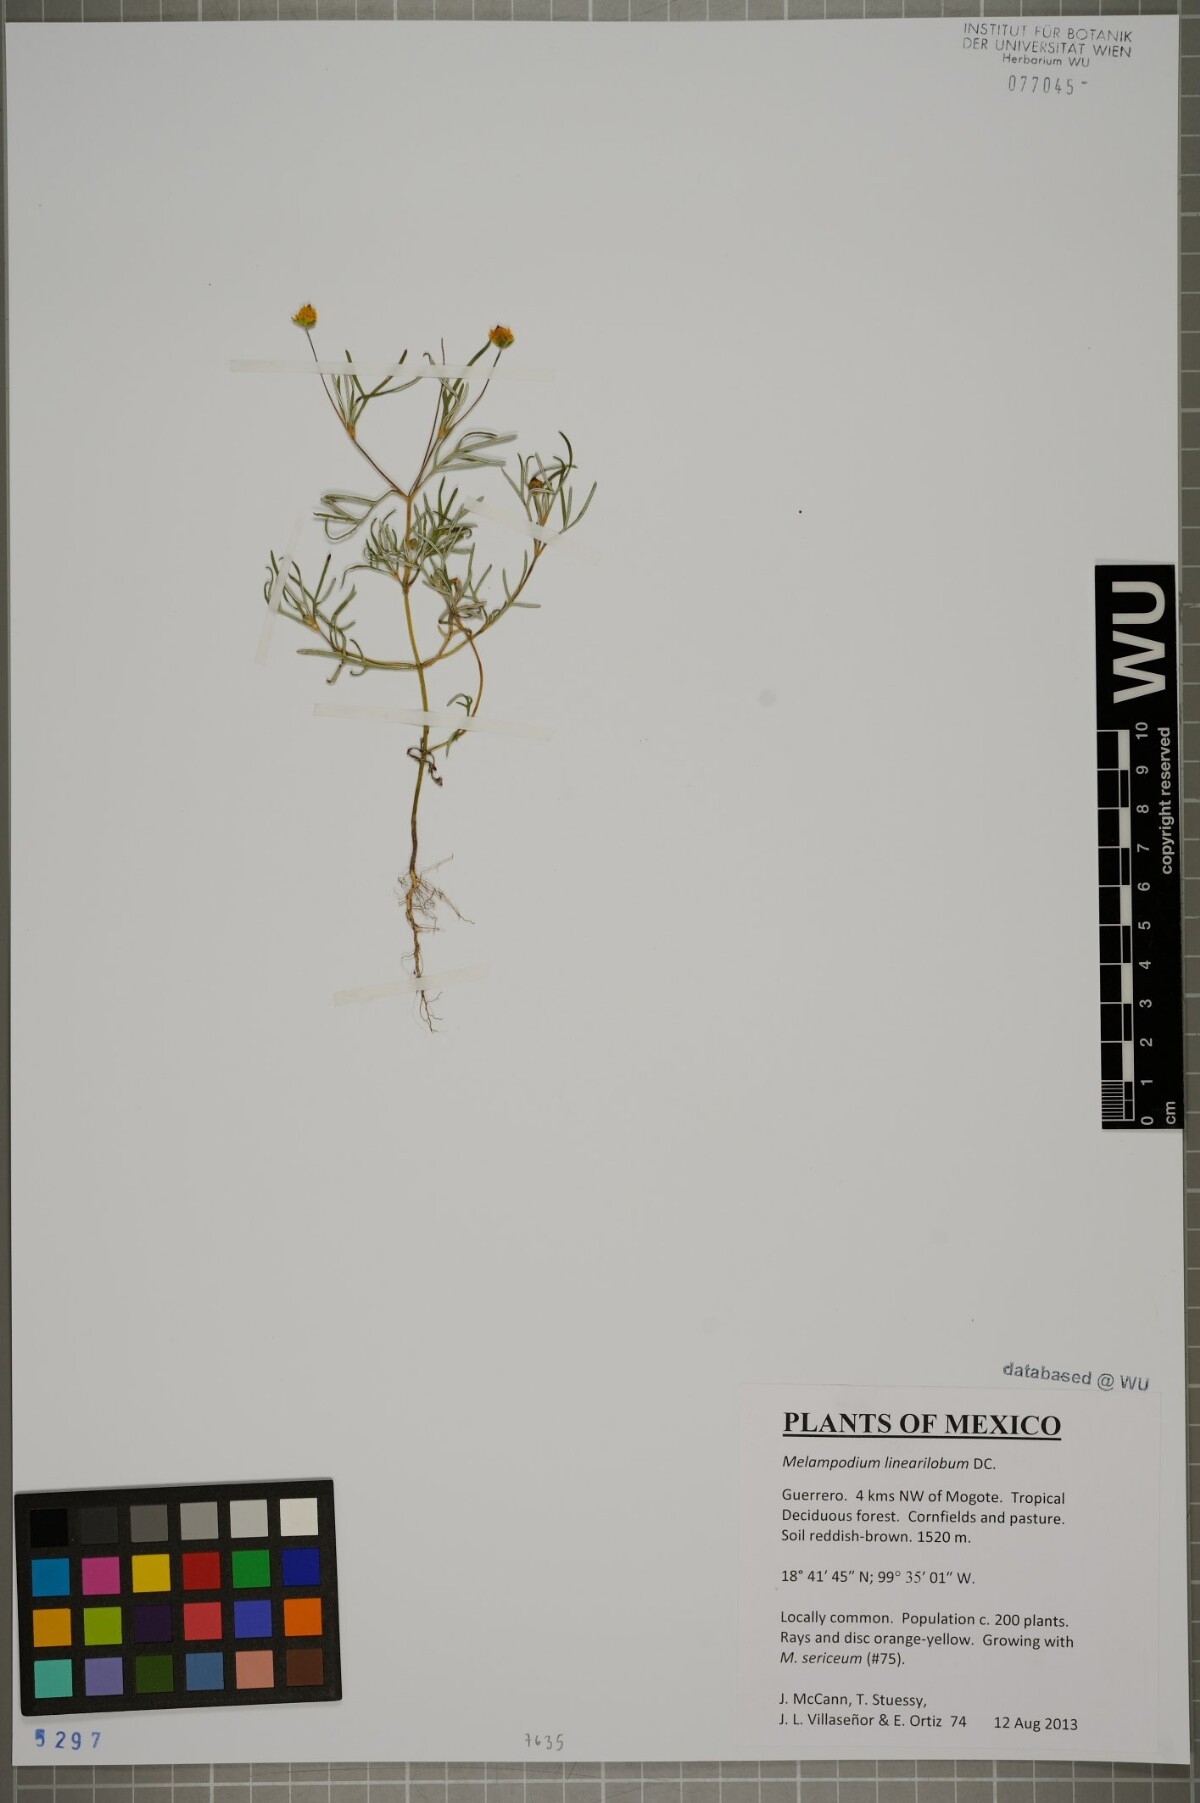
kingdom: Plantae
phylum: Tracheophyta
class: Magnoliopsida
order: Asterales
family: Asteraceae
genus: Melampodium
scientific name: Melampodium linearilobum
